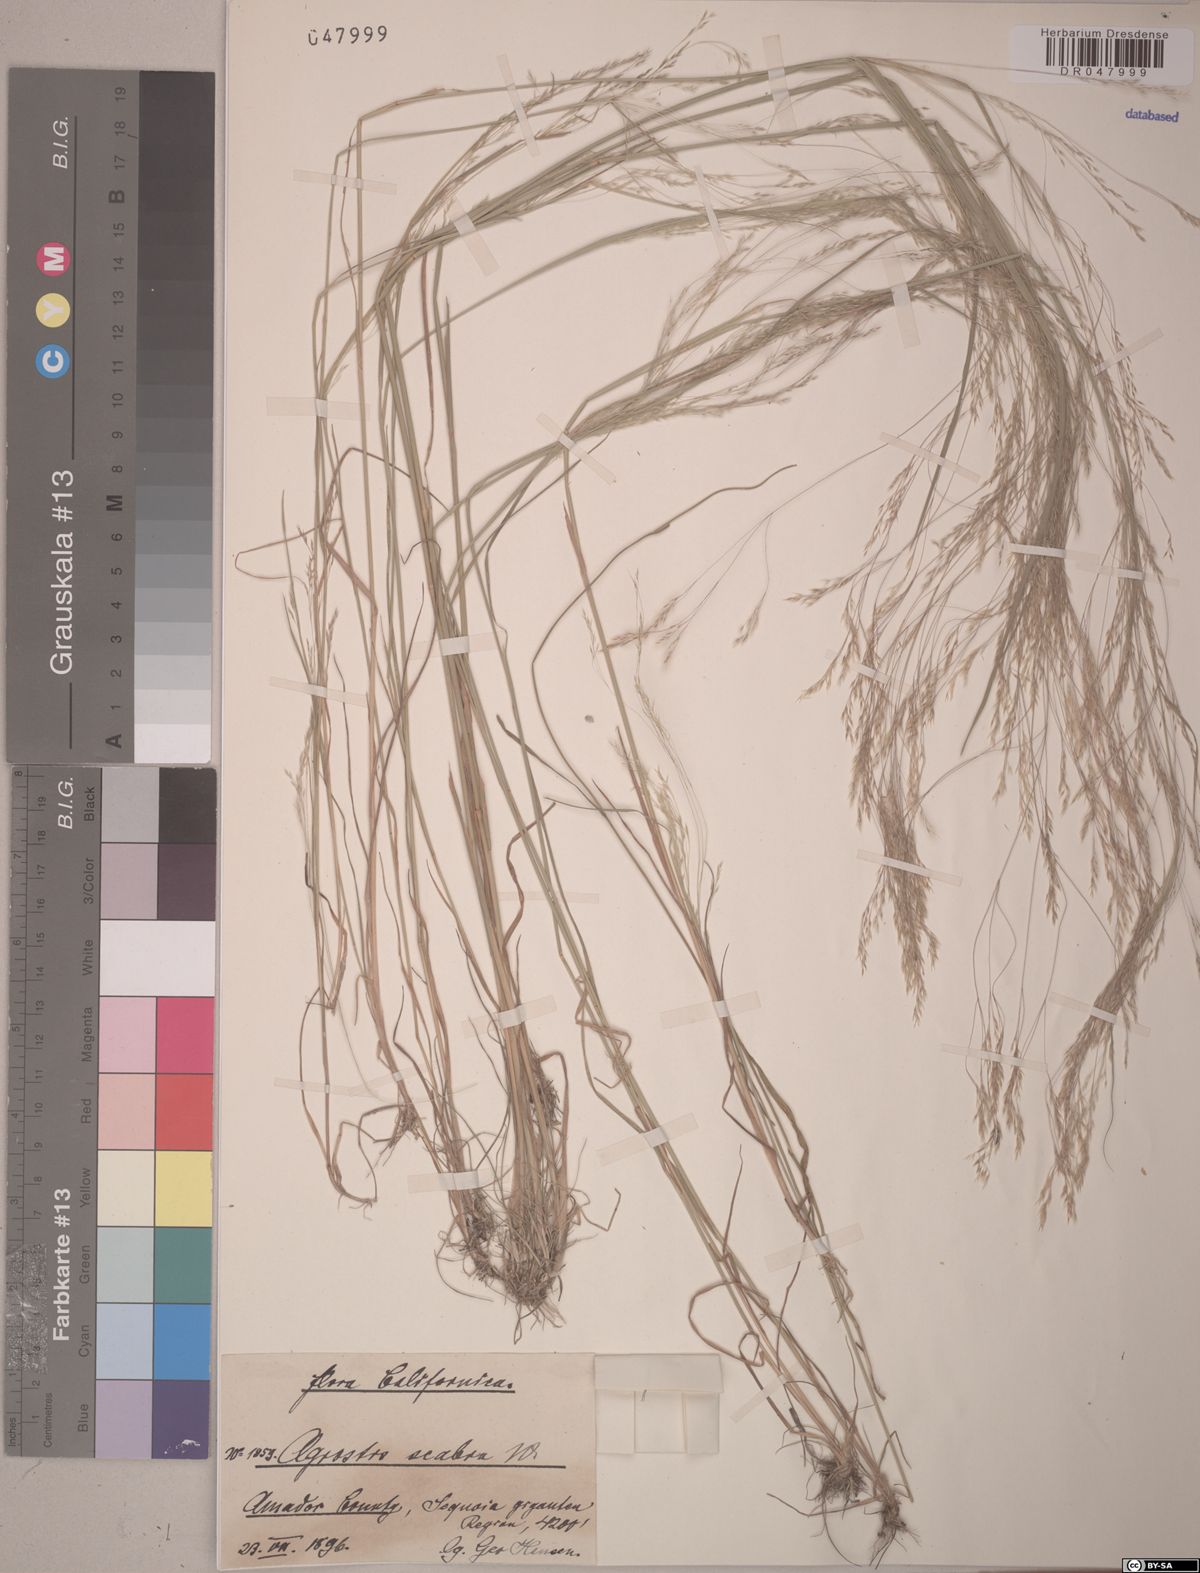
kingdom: Plantae
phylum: Tracheophyta
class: Liliopsida
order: Poales
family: Poaceae
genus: Agrostis
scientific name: Agrostis scabra
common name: Rough bent
